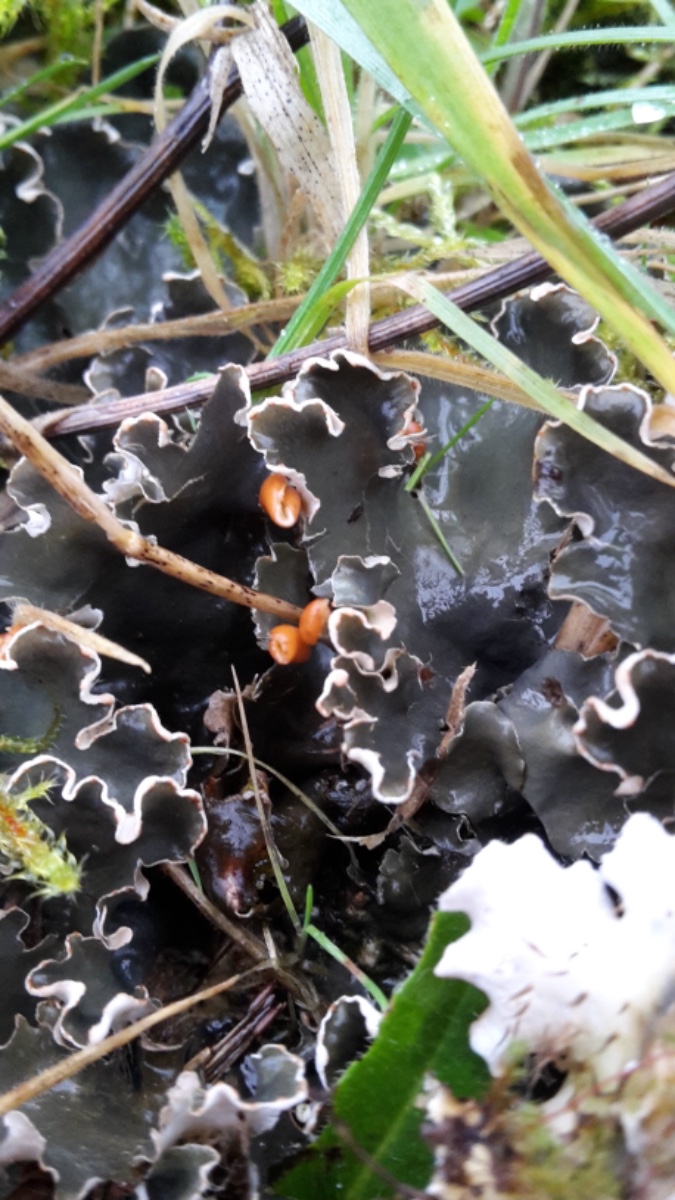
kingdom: Fungi
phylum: Ascomycota
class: Lecanoromycetes
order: Peltigerales
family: Peltigeraceae
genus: Peltigera
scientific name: Peltigera hymenina
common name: hinde-skjoldlav
